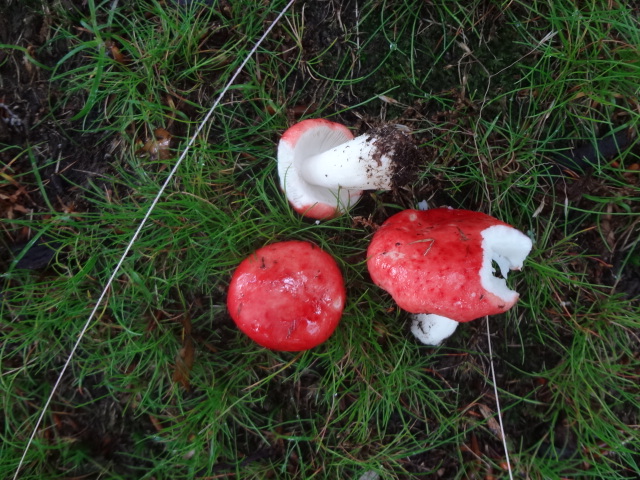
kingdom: Fungi
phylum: Basidiomycota
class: Agaricomycetes
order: Russulales
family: Russulaceae
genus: Russula
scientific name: Russula emetica
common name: stor gift-skørhat
